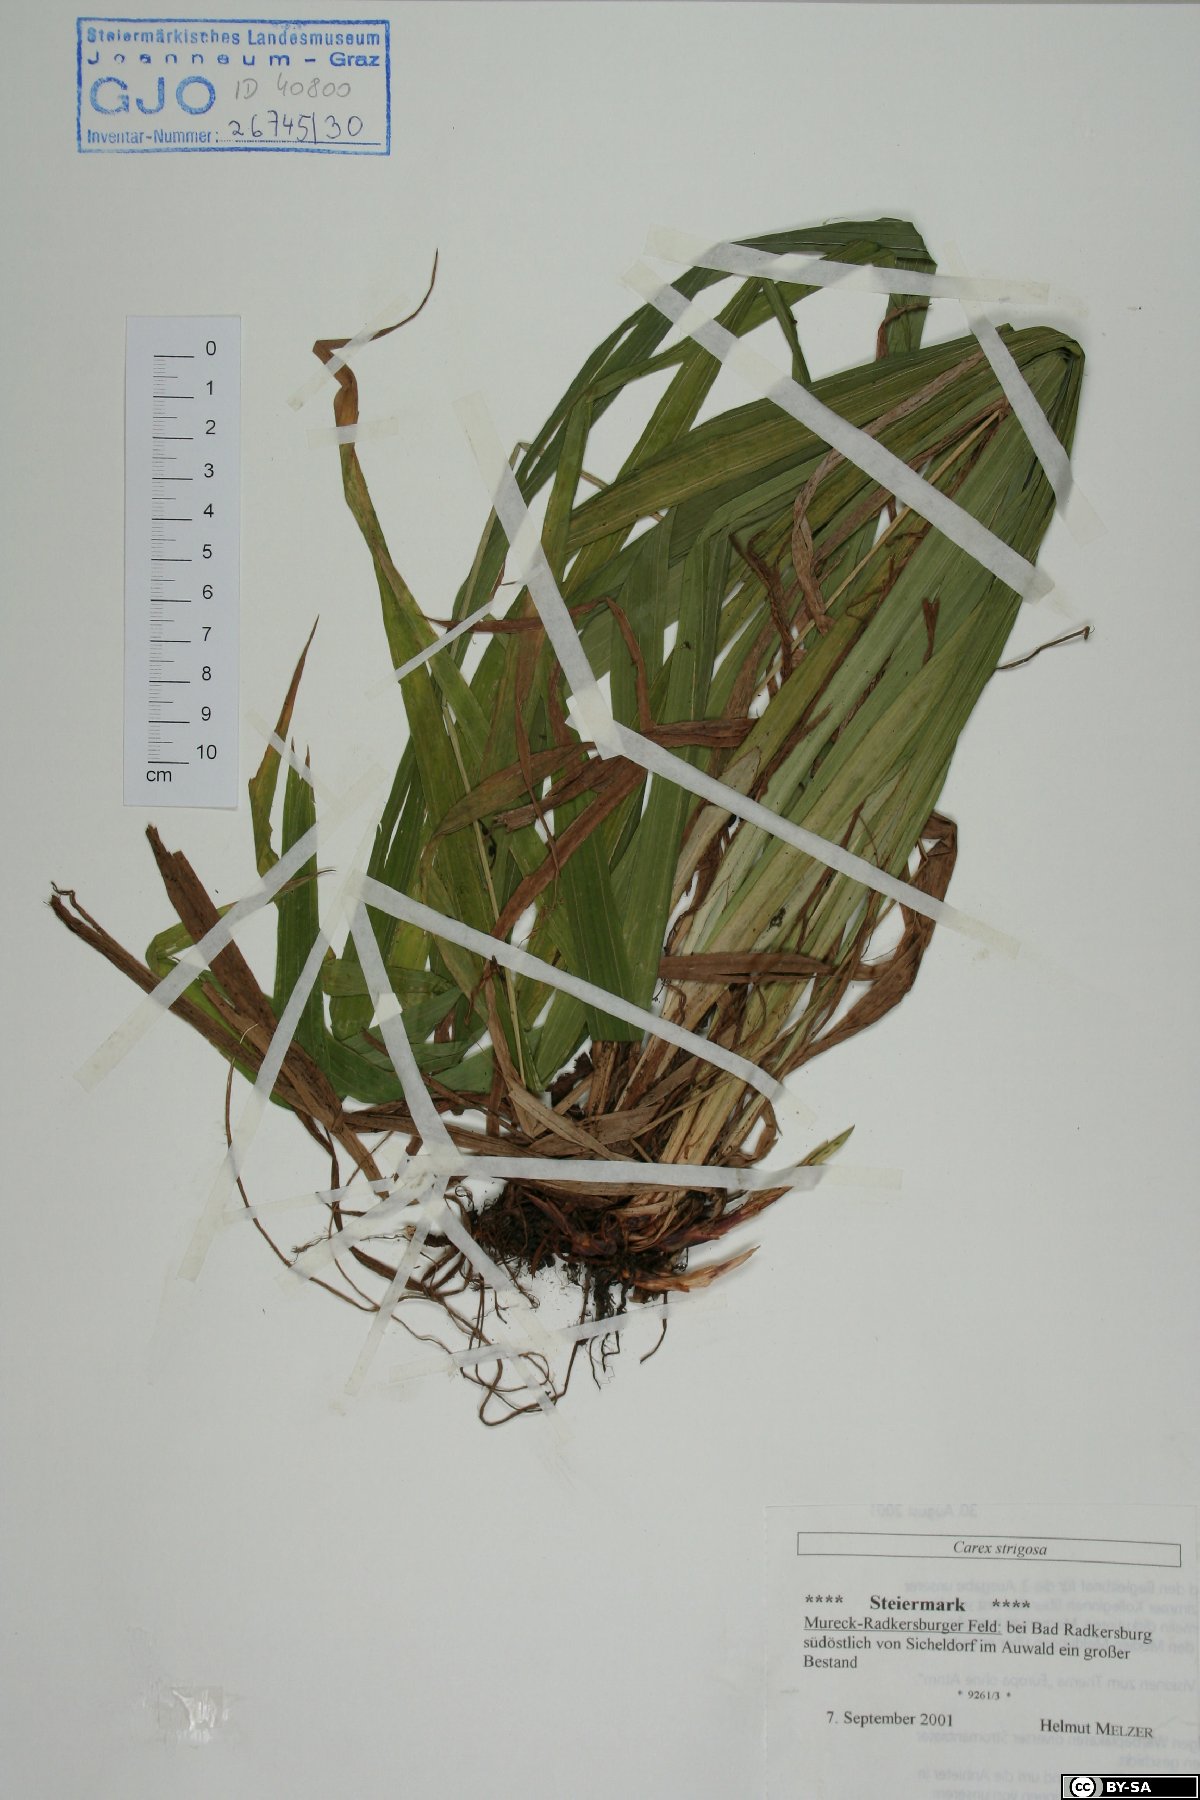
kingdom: Plantae
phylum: Tracheophyta
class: Liliopsida
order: Poales
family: Cyperaceae
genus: Carex
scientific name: Carex strigosa
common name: Thin-spiked wood-sedge
